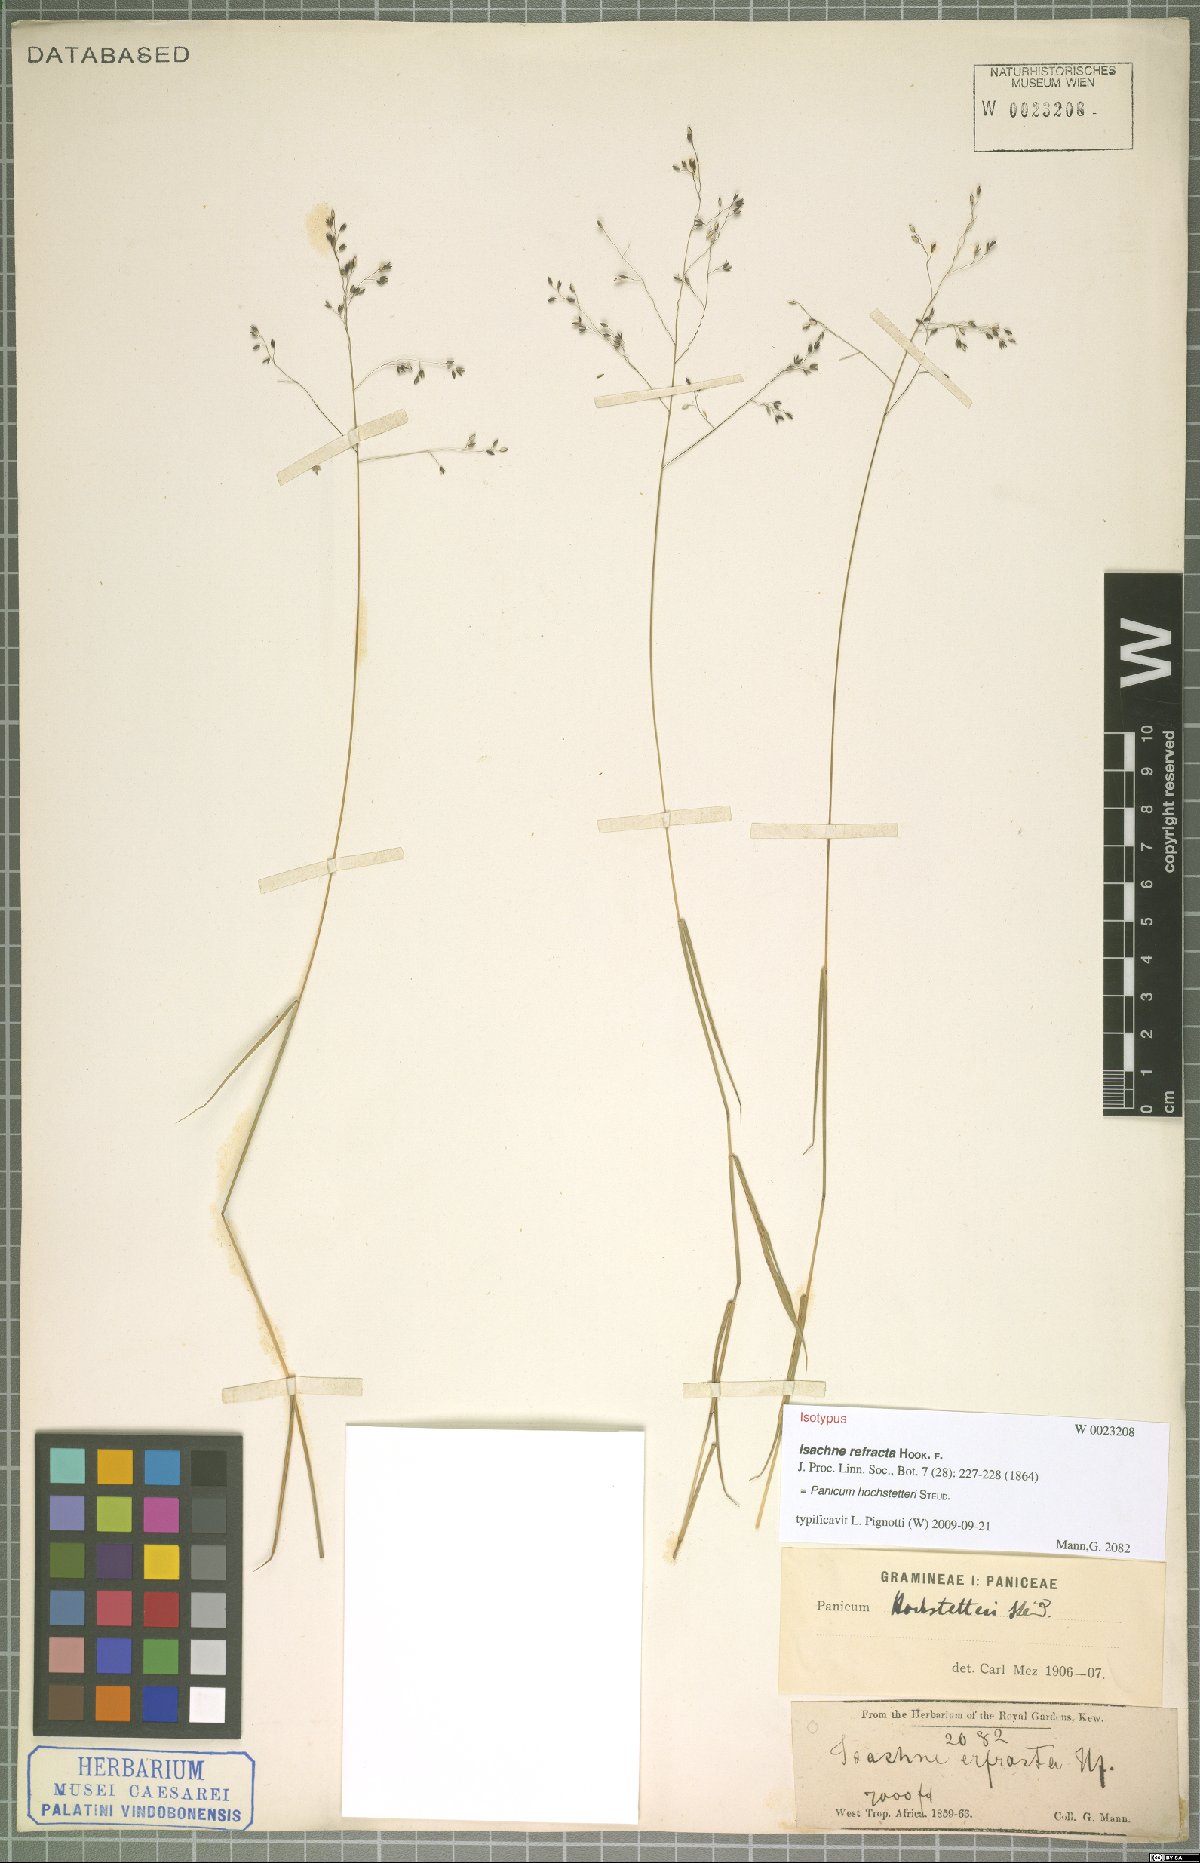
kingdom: Plantae
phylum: Tracheophyta
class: Liliopsida
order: Poales
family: Poaceae
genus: Panicum
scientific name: Panicum hochstetteri
